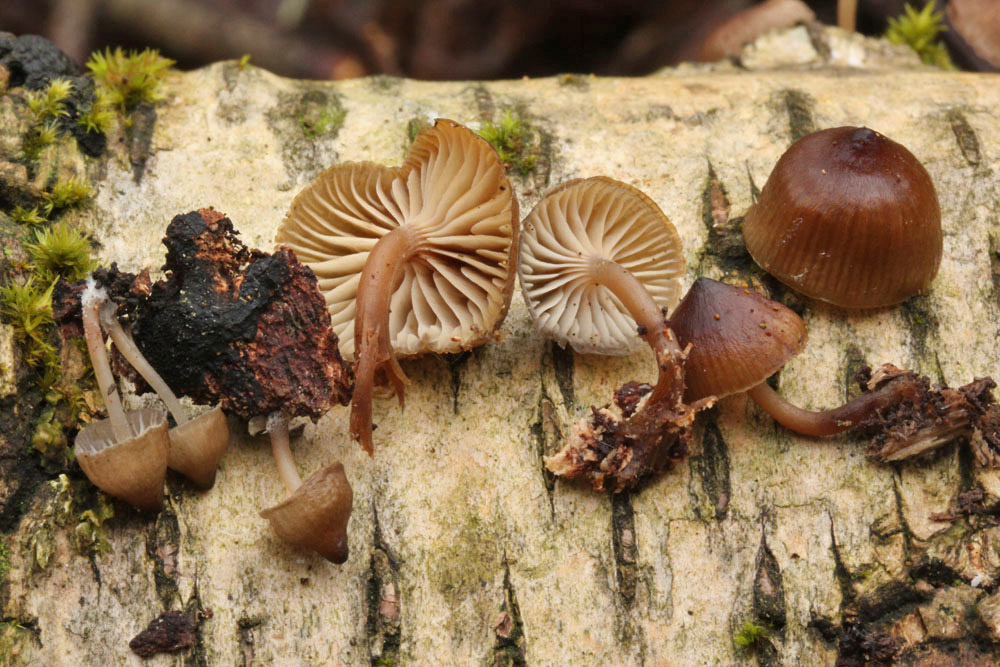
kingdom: Fungi
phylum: Basidiomycota
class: Agaricomycetes
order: Agaricales
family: Mycenaceae
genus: Mycena
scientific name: Mycena tintinnabulum
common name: vinter-huesvamp
